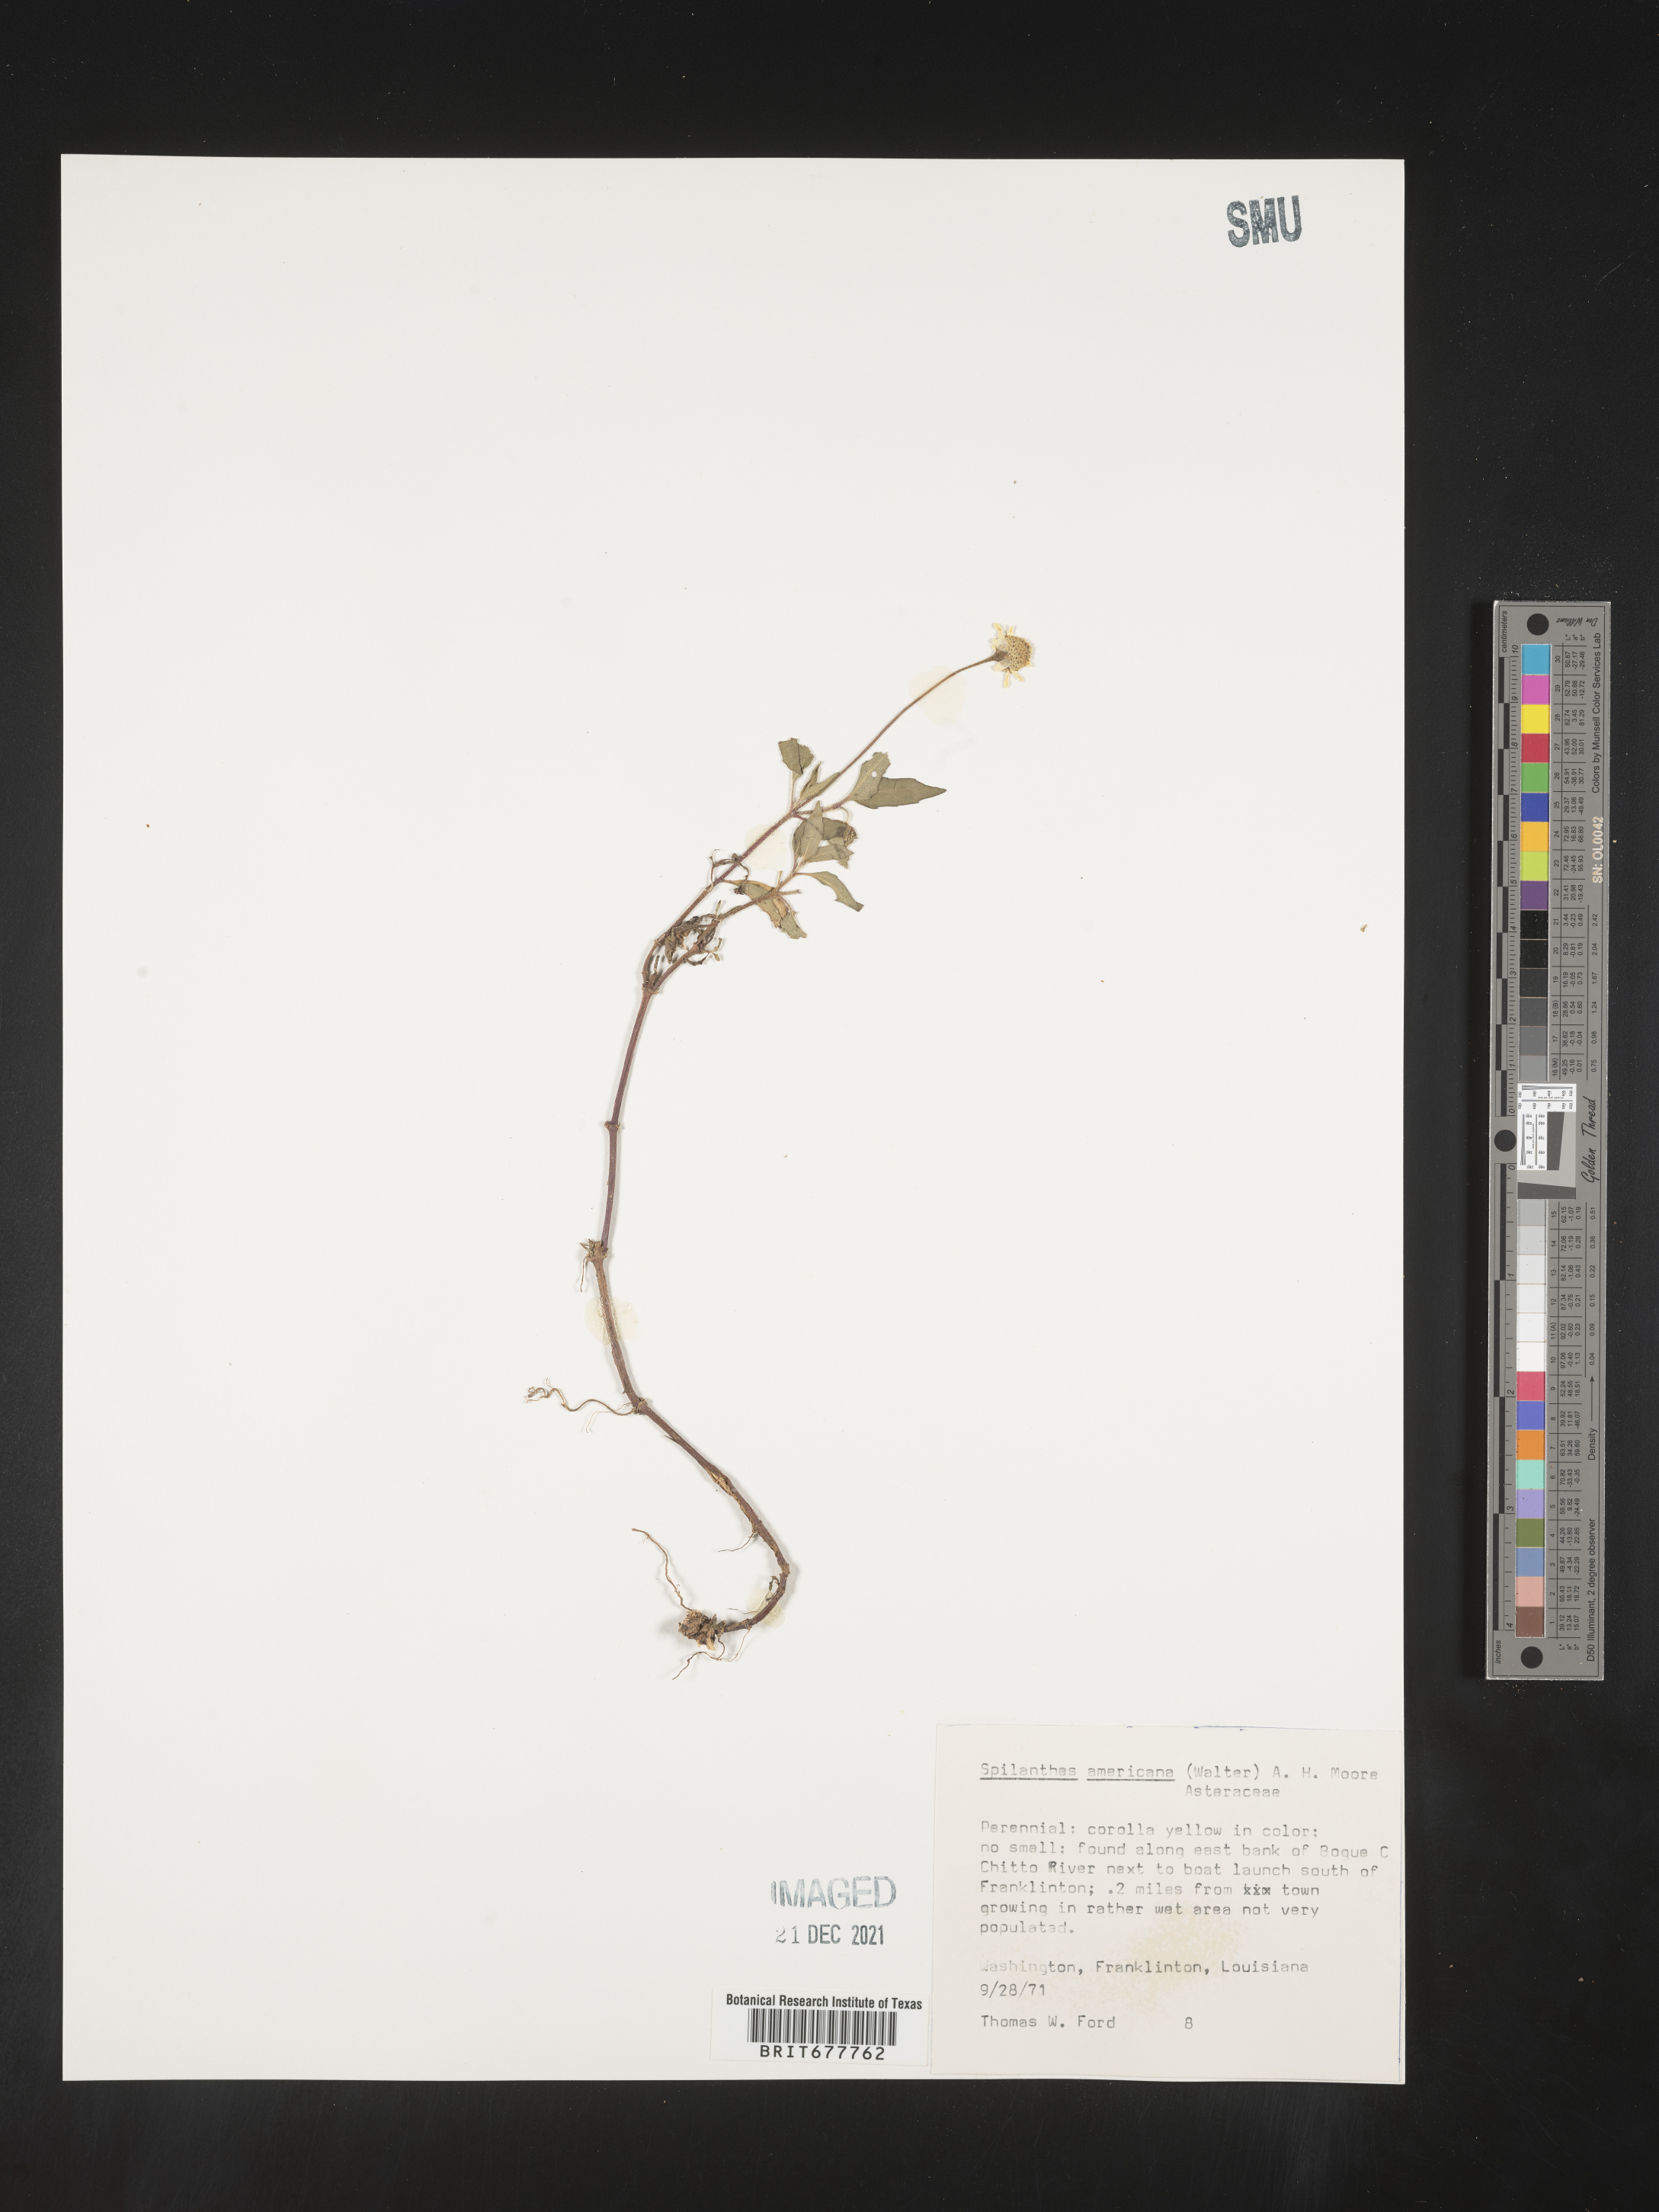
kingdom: Plantae
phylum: Tracheophyta
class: Magnoliopsida
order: Asterales
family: Asteraceae
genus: Spilanthes
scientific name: Spilanthes
